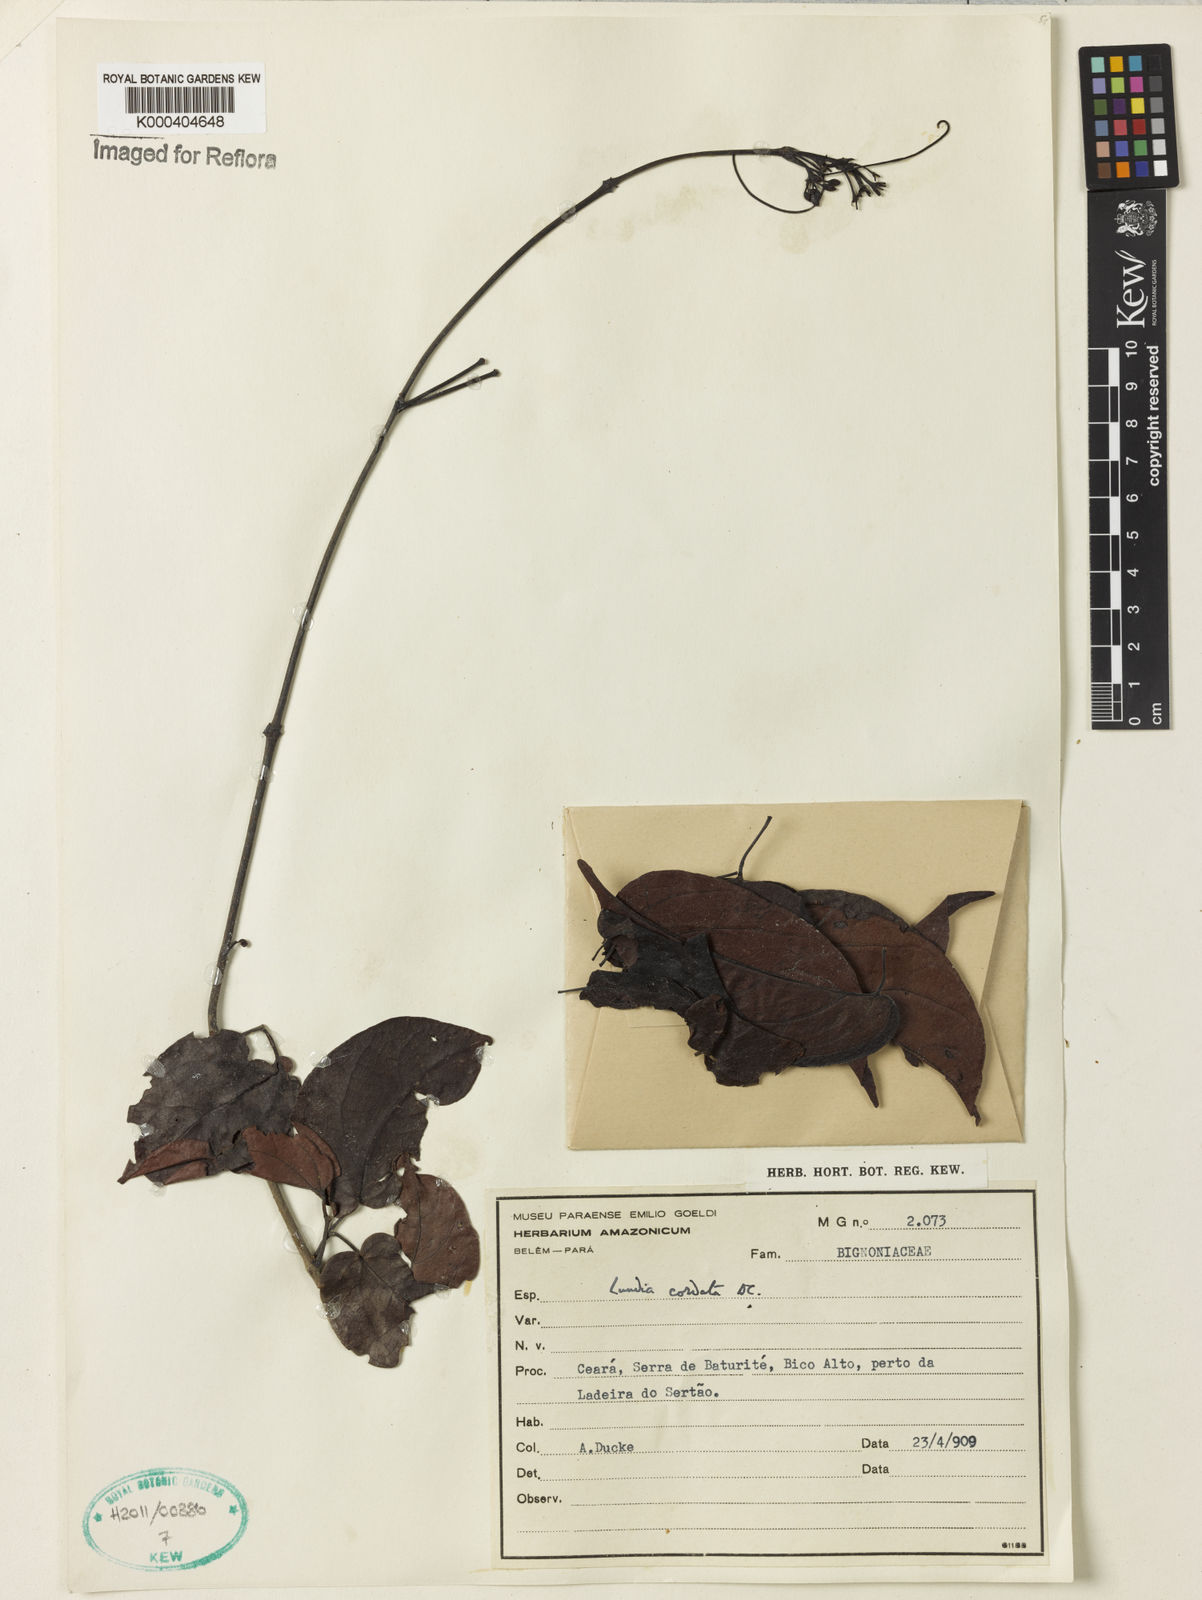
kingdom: Plantae
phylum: Tracheophyta
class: Magnoliopsida
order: Lamiales
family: Bignoniaceae
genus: Lundia
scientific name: Lundia corymbifera
